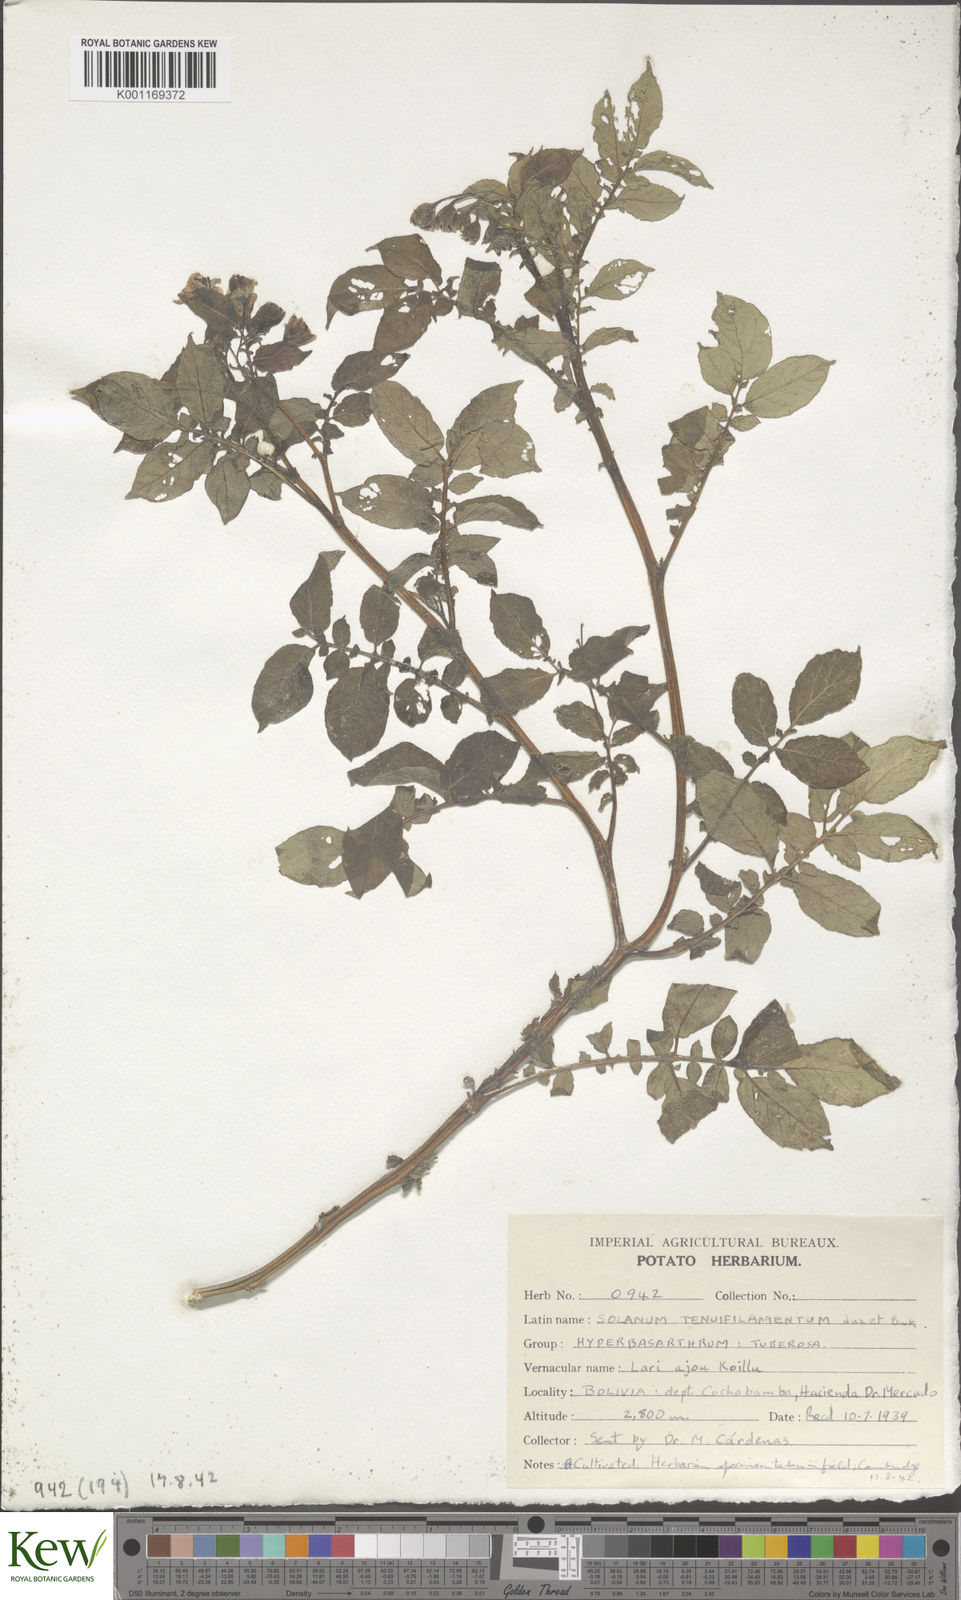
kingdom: Plantae
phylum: Tracheophyta
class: Magnoliopsida
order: Solanales
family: Solanaceae
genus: Solanum
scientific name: Solanum chaucha
